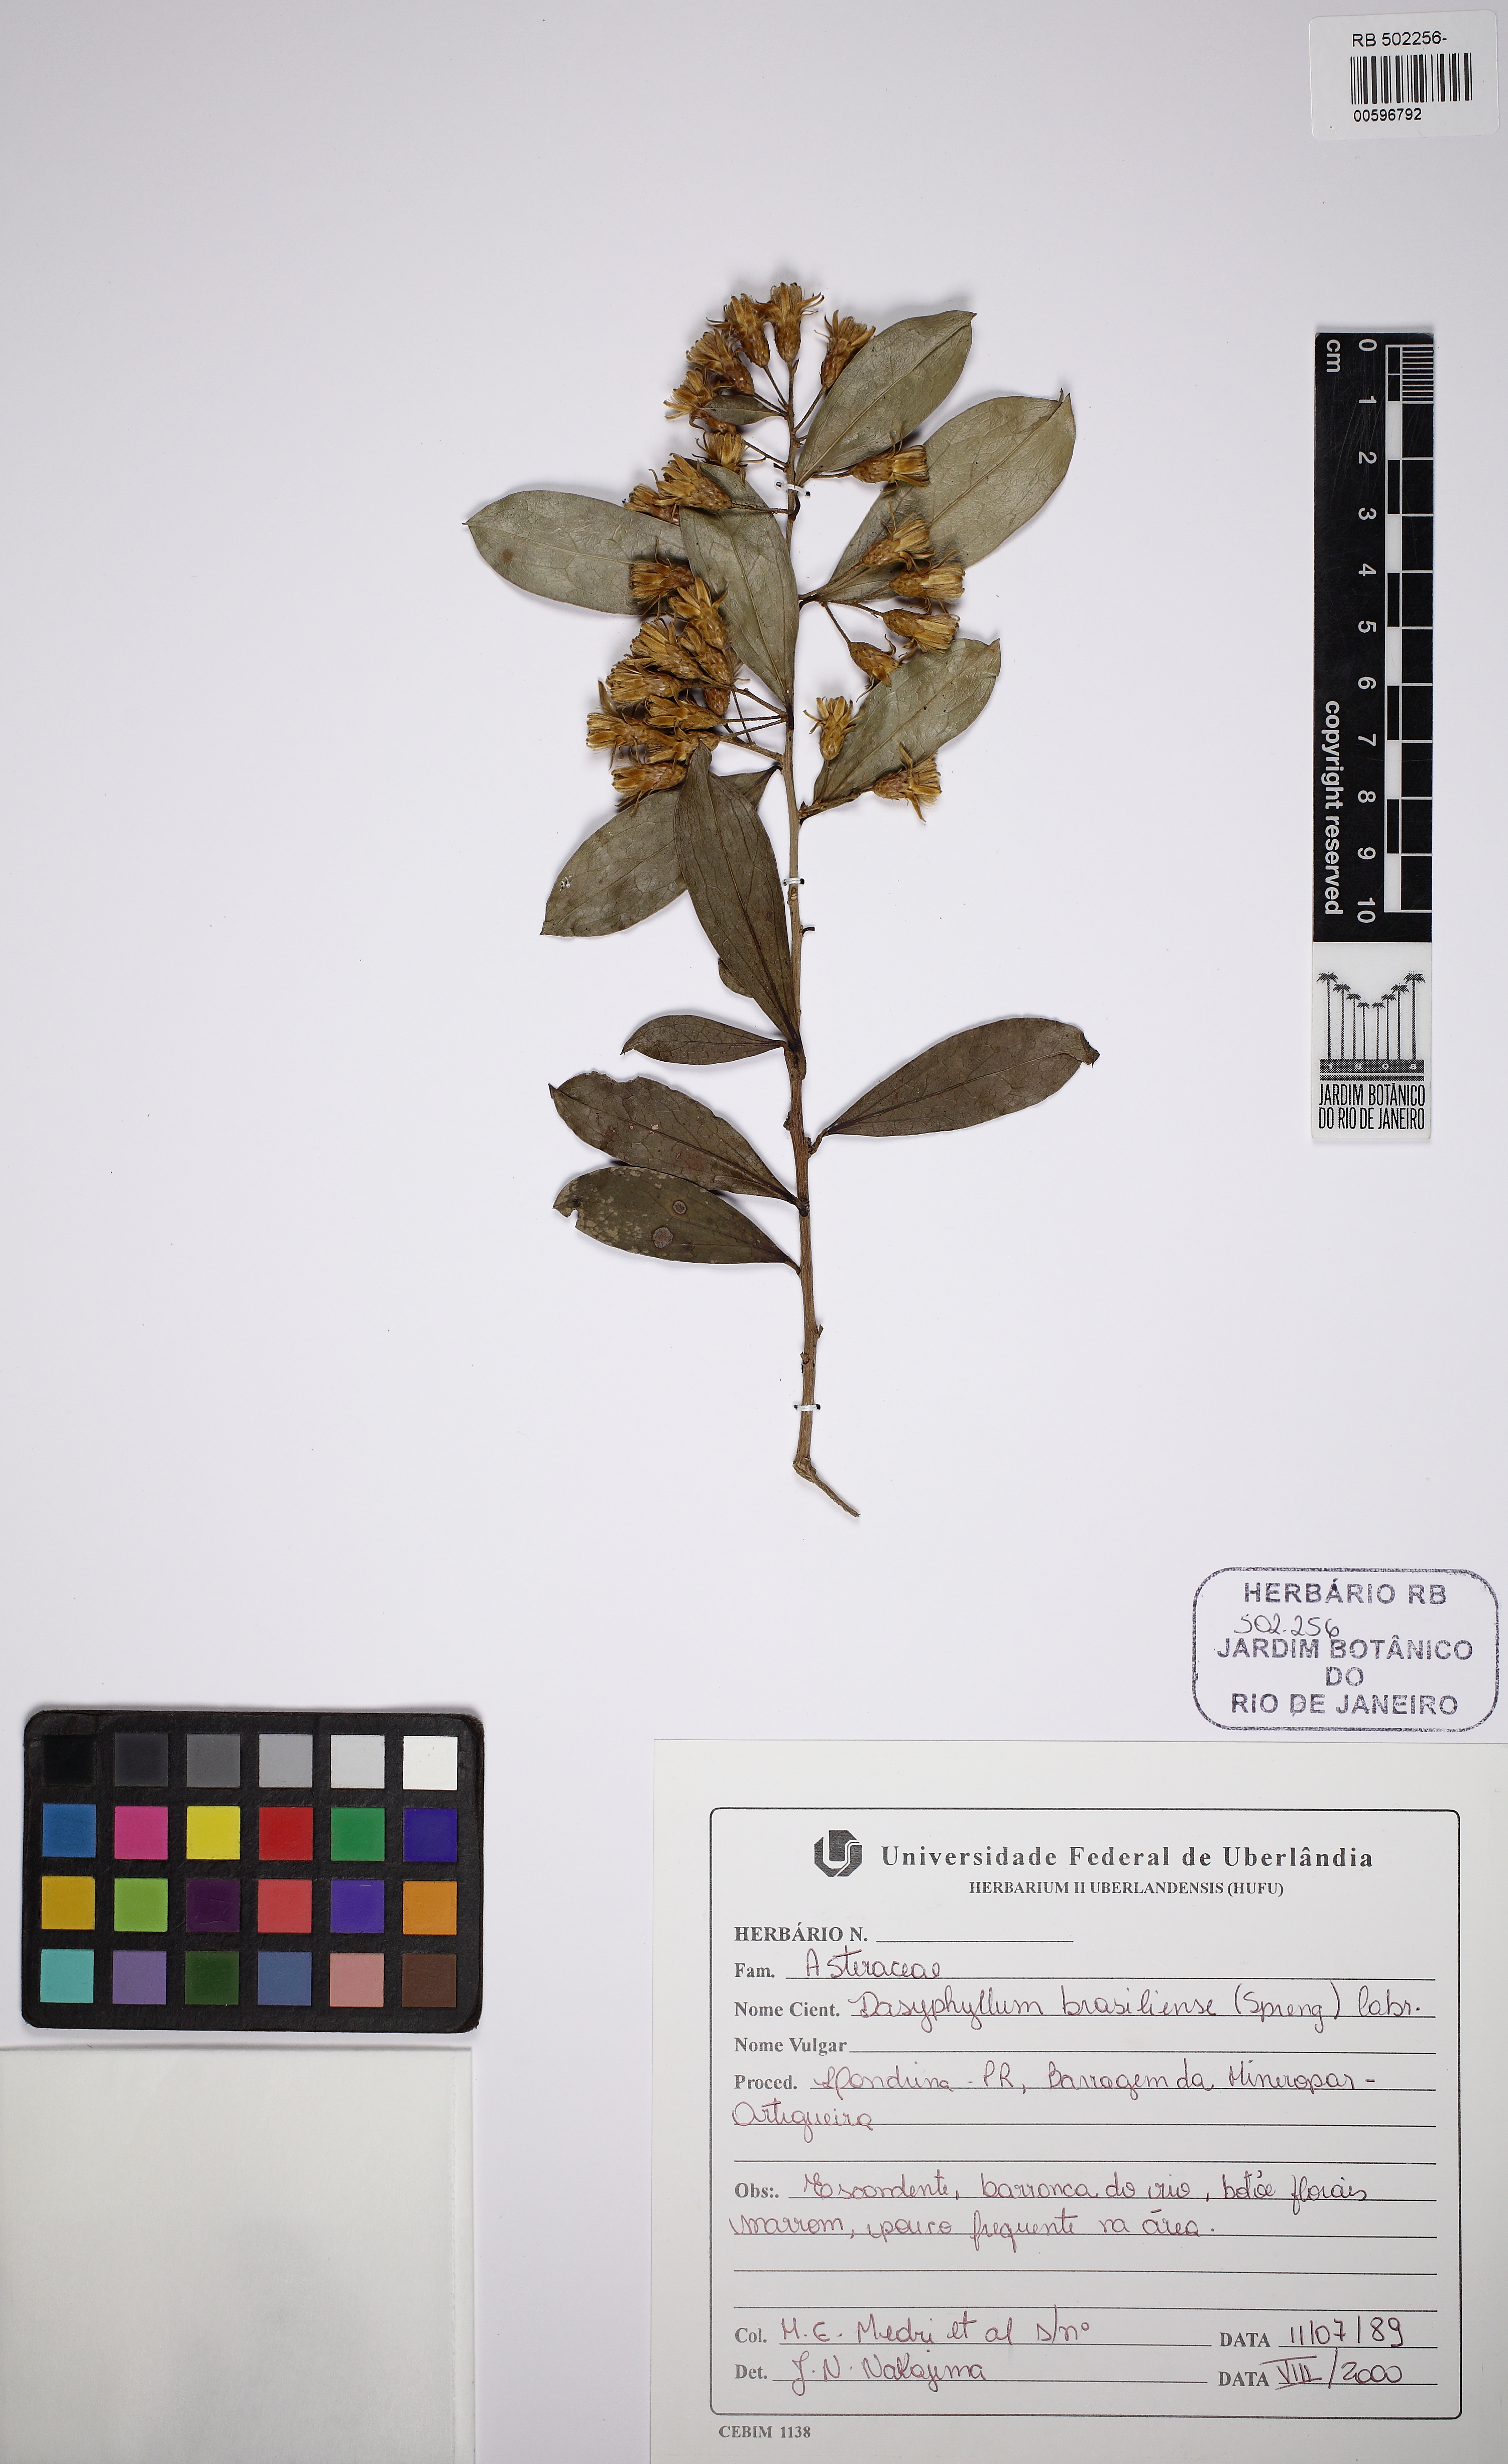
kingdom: Plantae
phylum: Tracheophyta
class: Magnoliopsida
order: Asterales
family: Asteraceae
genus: Dasyphyllum
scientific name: Dasyphyllum brasiliense
